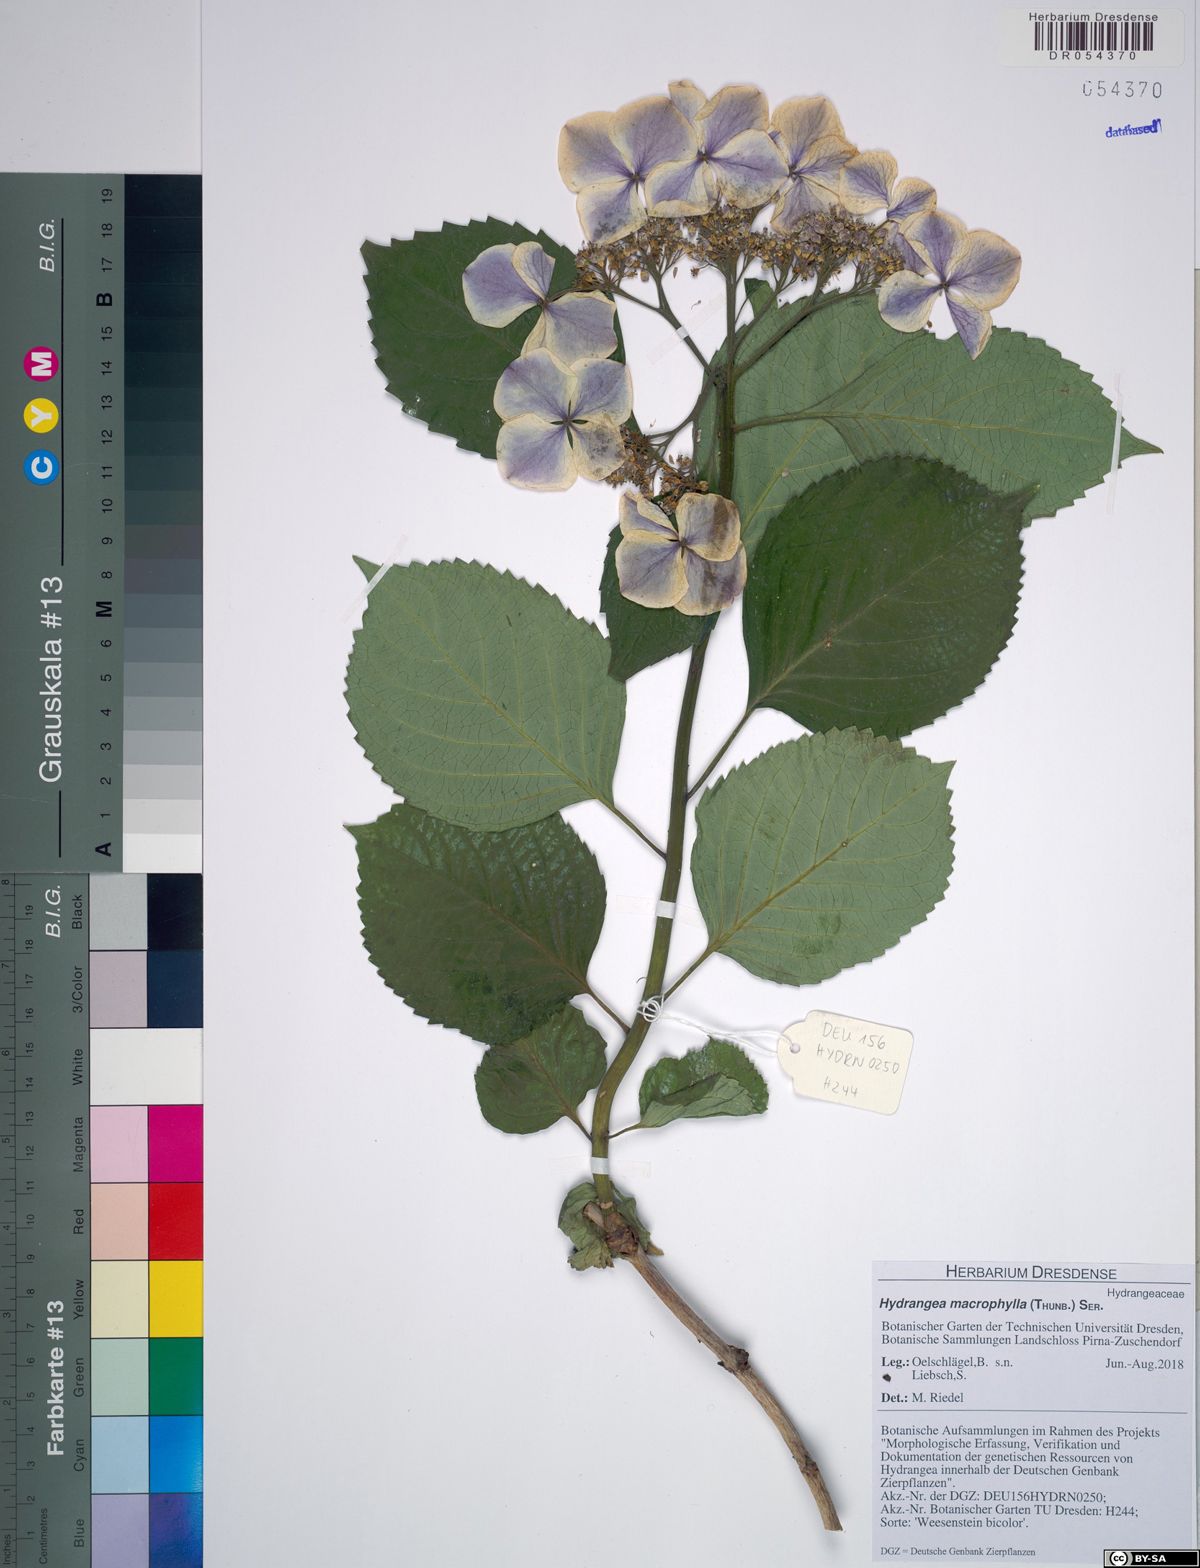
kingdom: Plantae
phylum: Tracheophyta
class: Magnoliopsida
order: Cornales
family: Hydrangeaceae
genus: Hydrangea
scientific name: Hydrangea macrophylla
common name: Hydrangea
